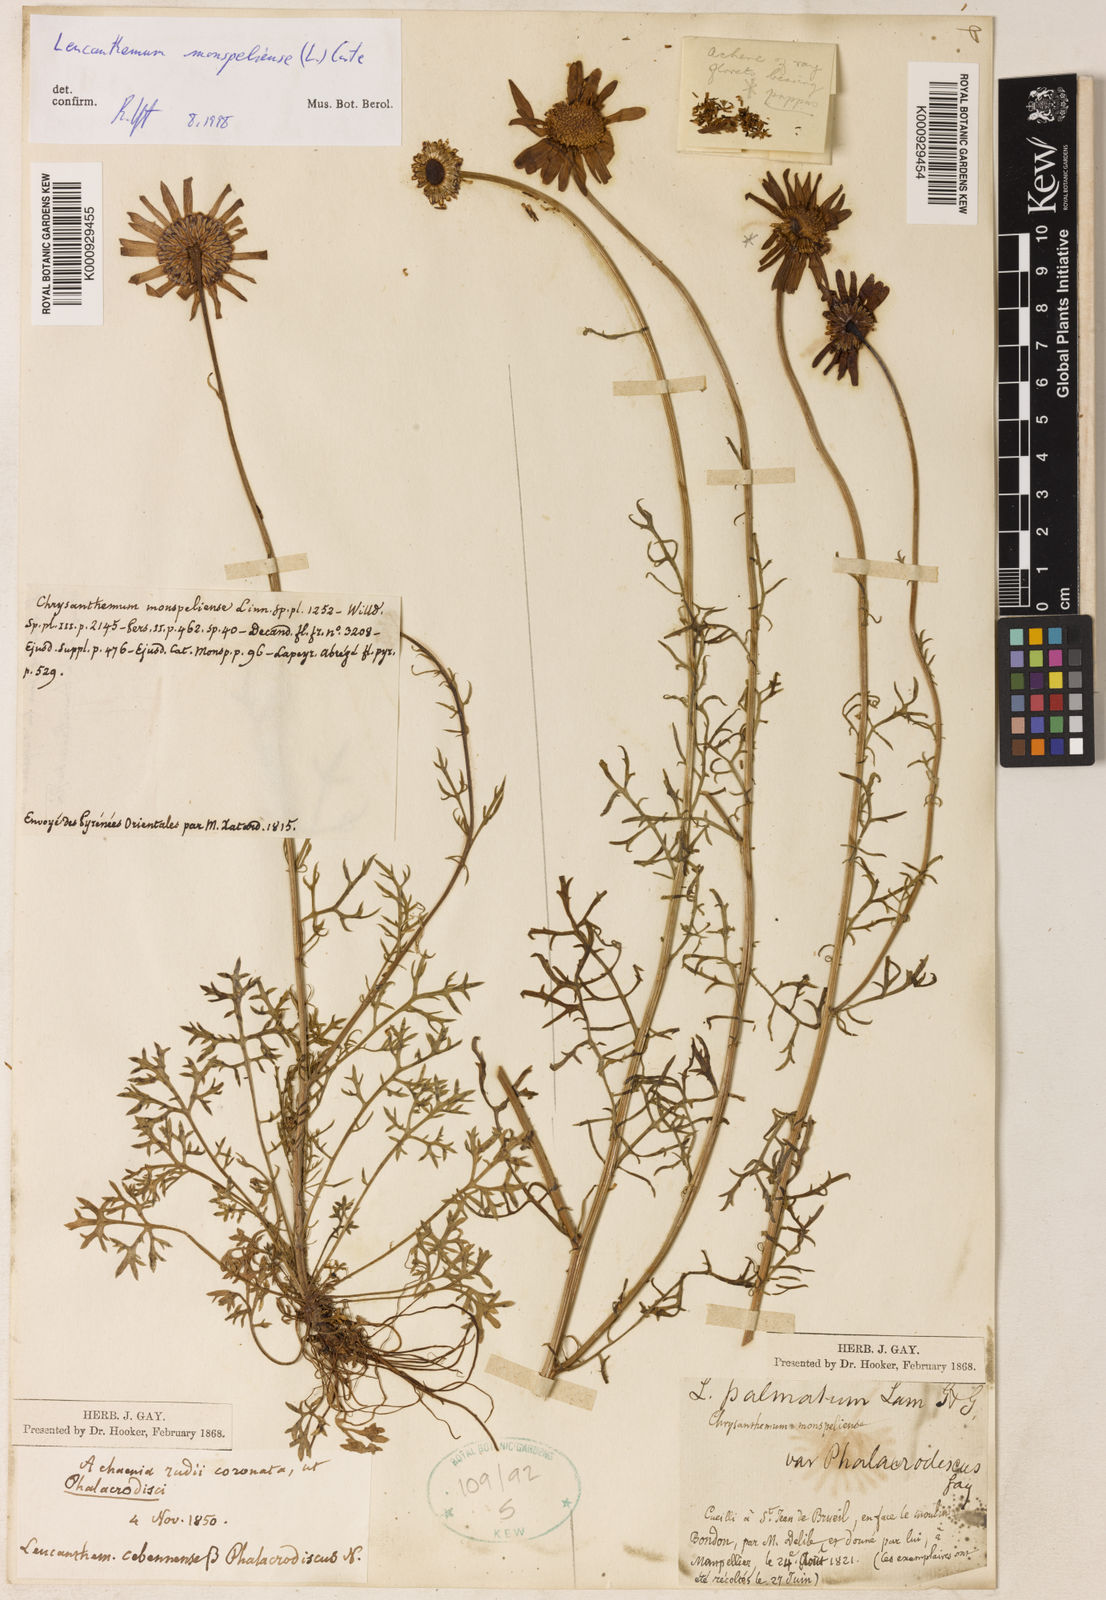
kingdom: Plantae
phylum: Tracheophyta
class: Magnoliopsida
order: Asterales
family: Asteraceae
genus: Leucanthemum
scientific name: Leucanthemum monspeliense
